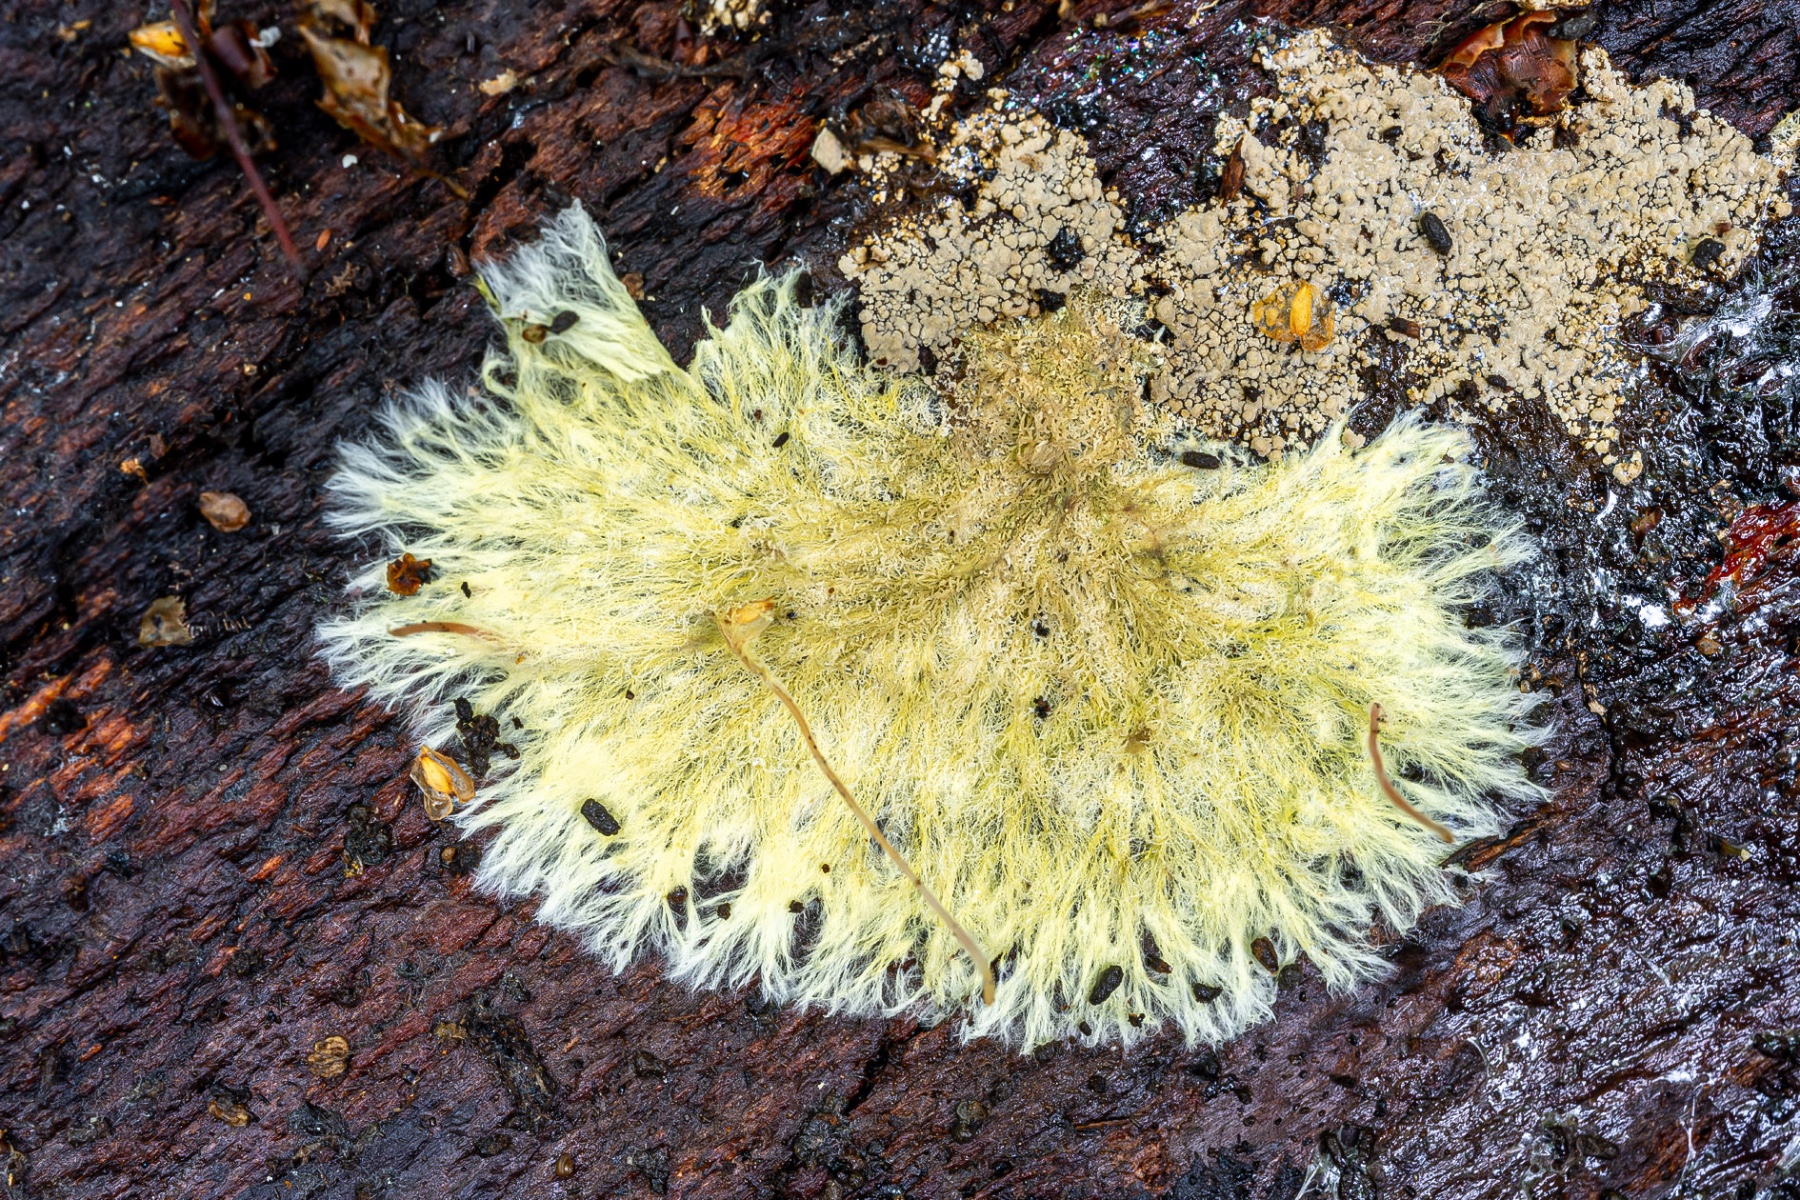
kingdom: Fungi
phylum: Basidiomycota
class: Agaricomycetes
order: Russulales
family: Xenasmataceae
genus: Xenasmatella
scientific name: Xenasmatella vaga
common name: svovl-strenghinde
